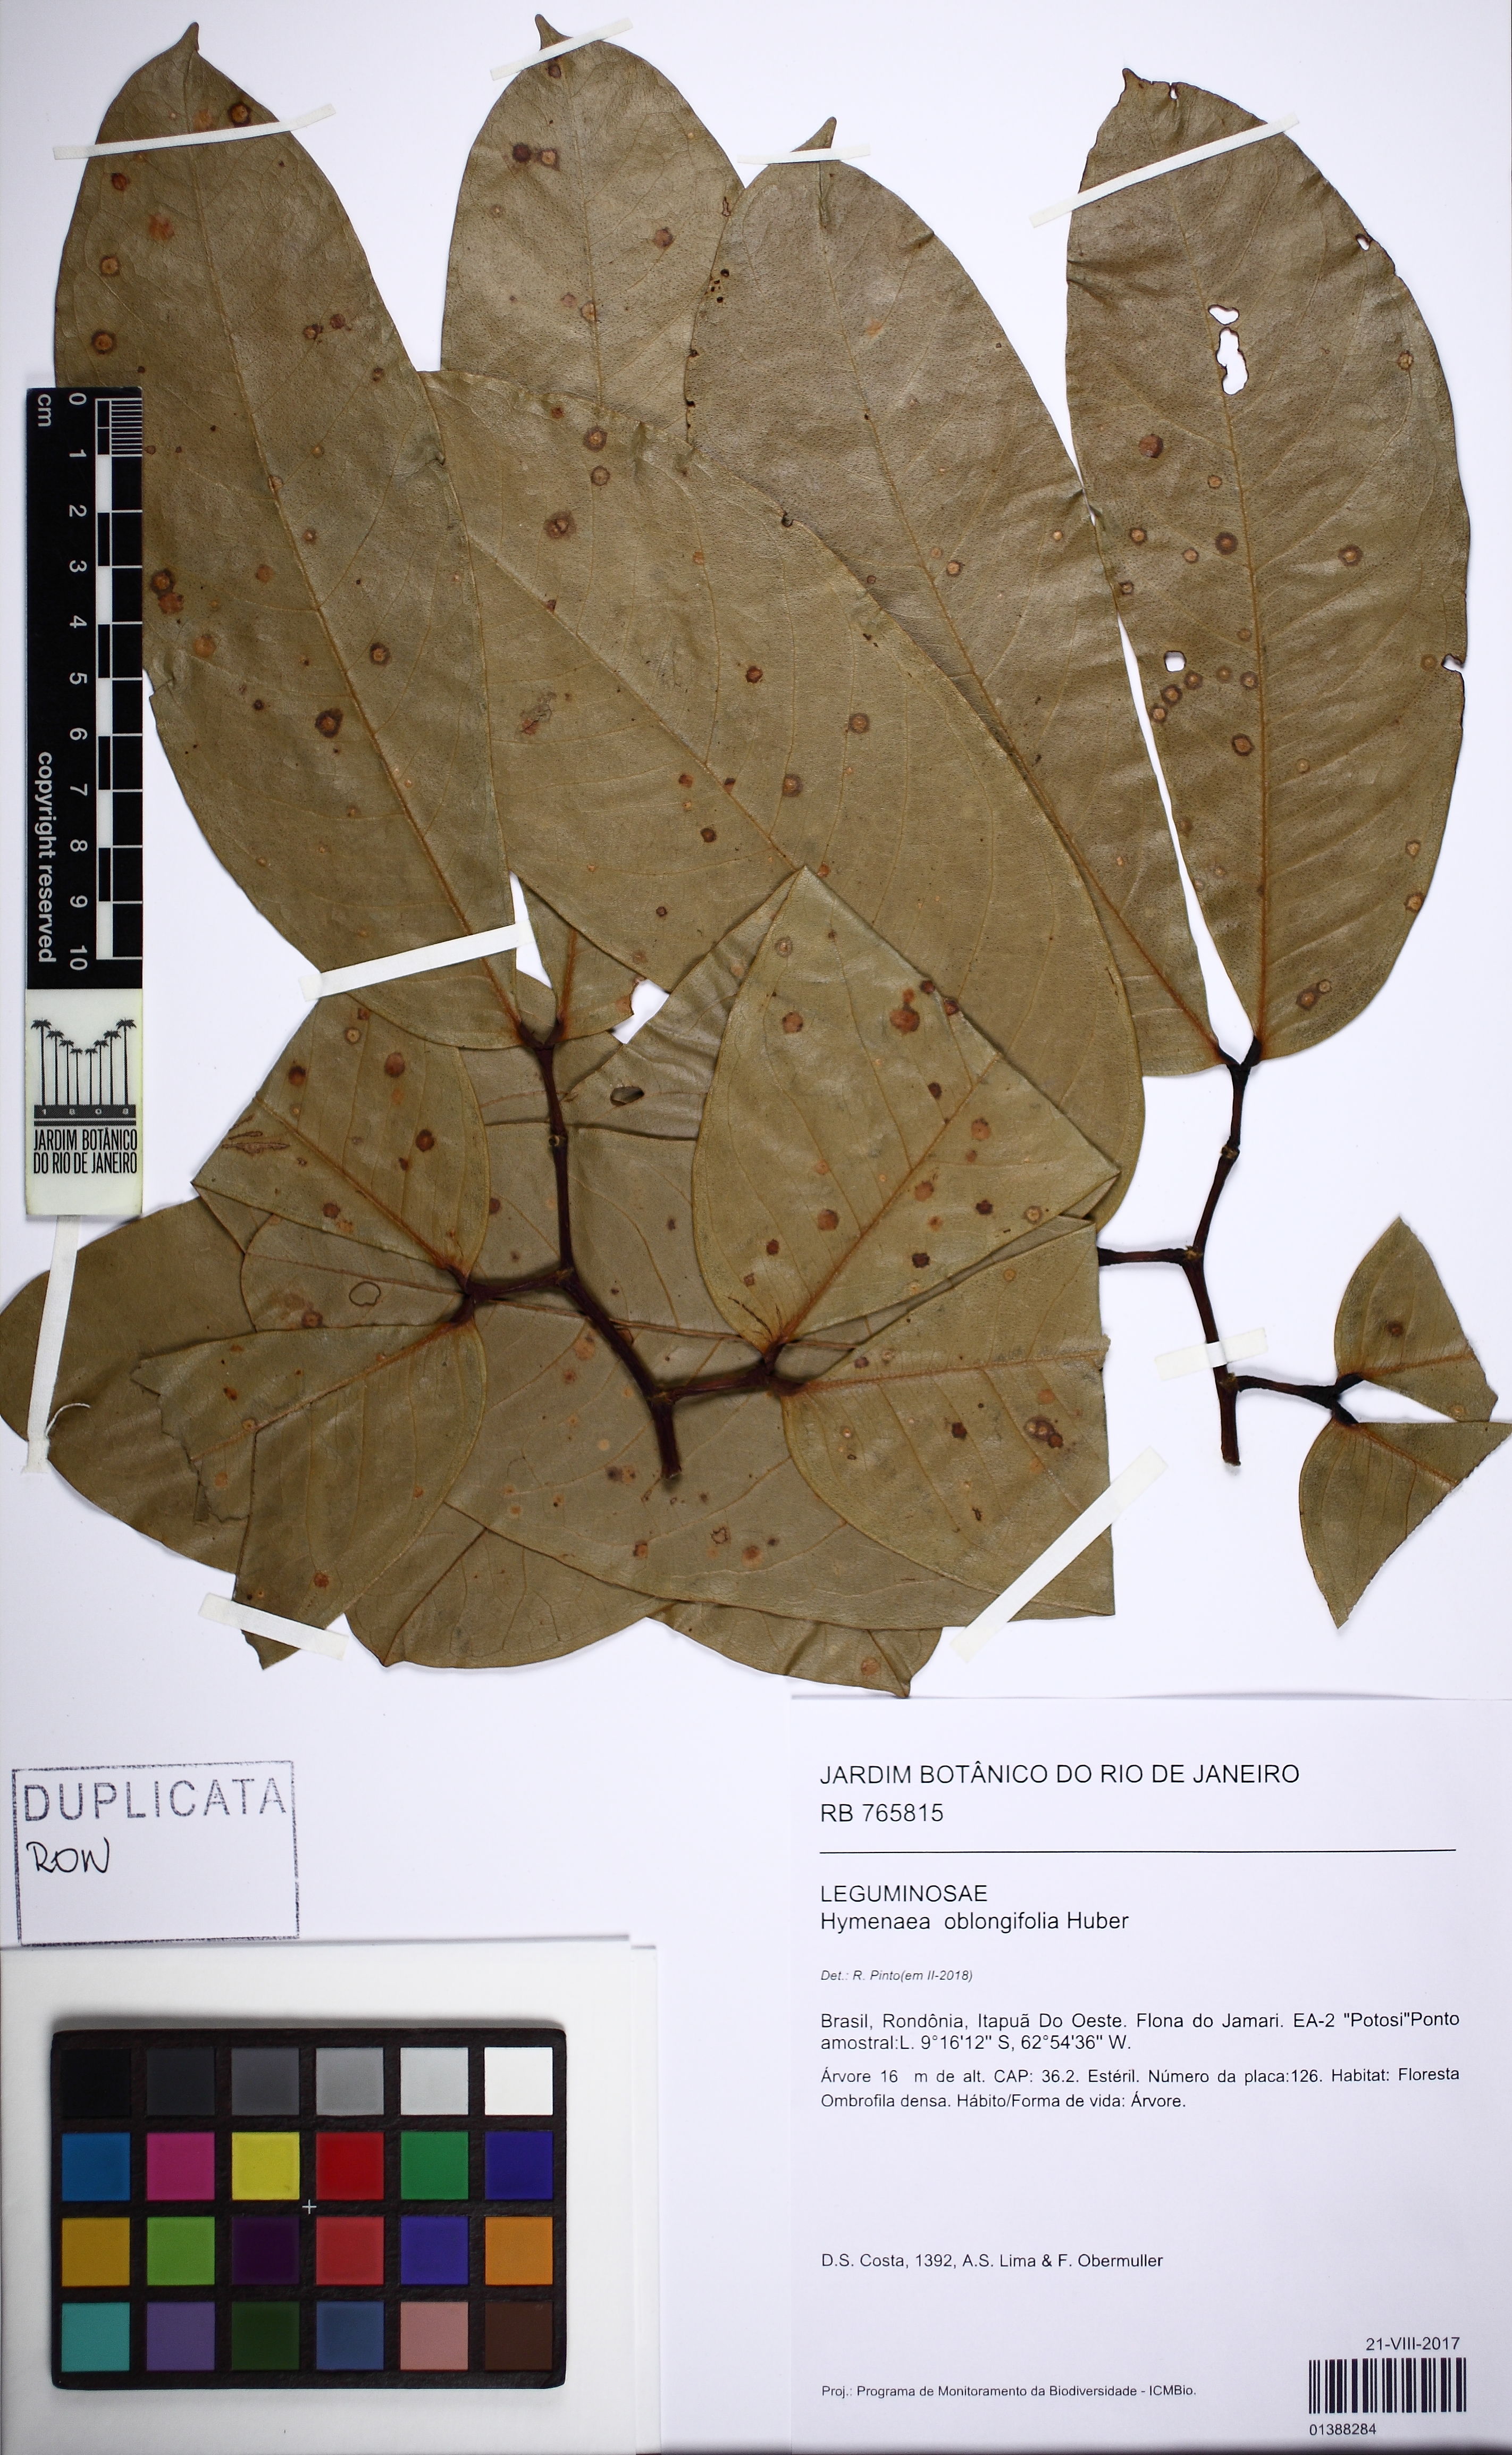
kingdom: Plantae
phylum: Tracheophyta
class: Magnoliopsida
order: Fabales
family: Fabaceae
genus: Hymenaea
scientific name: Hymenaea oblongifolia
